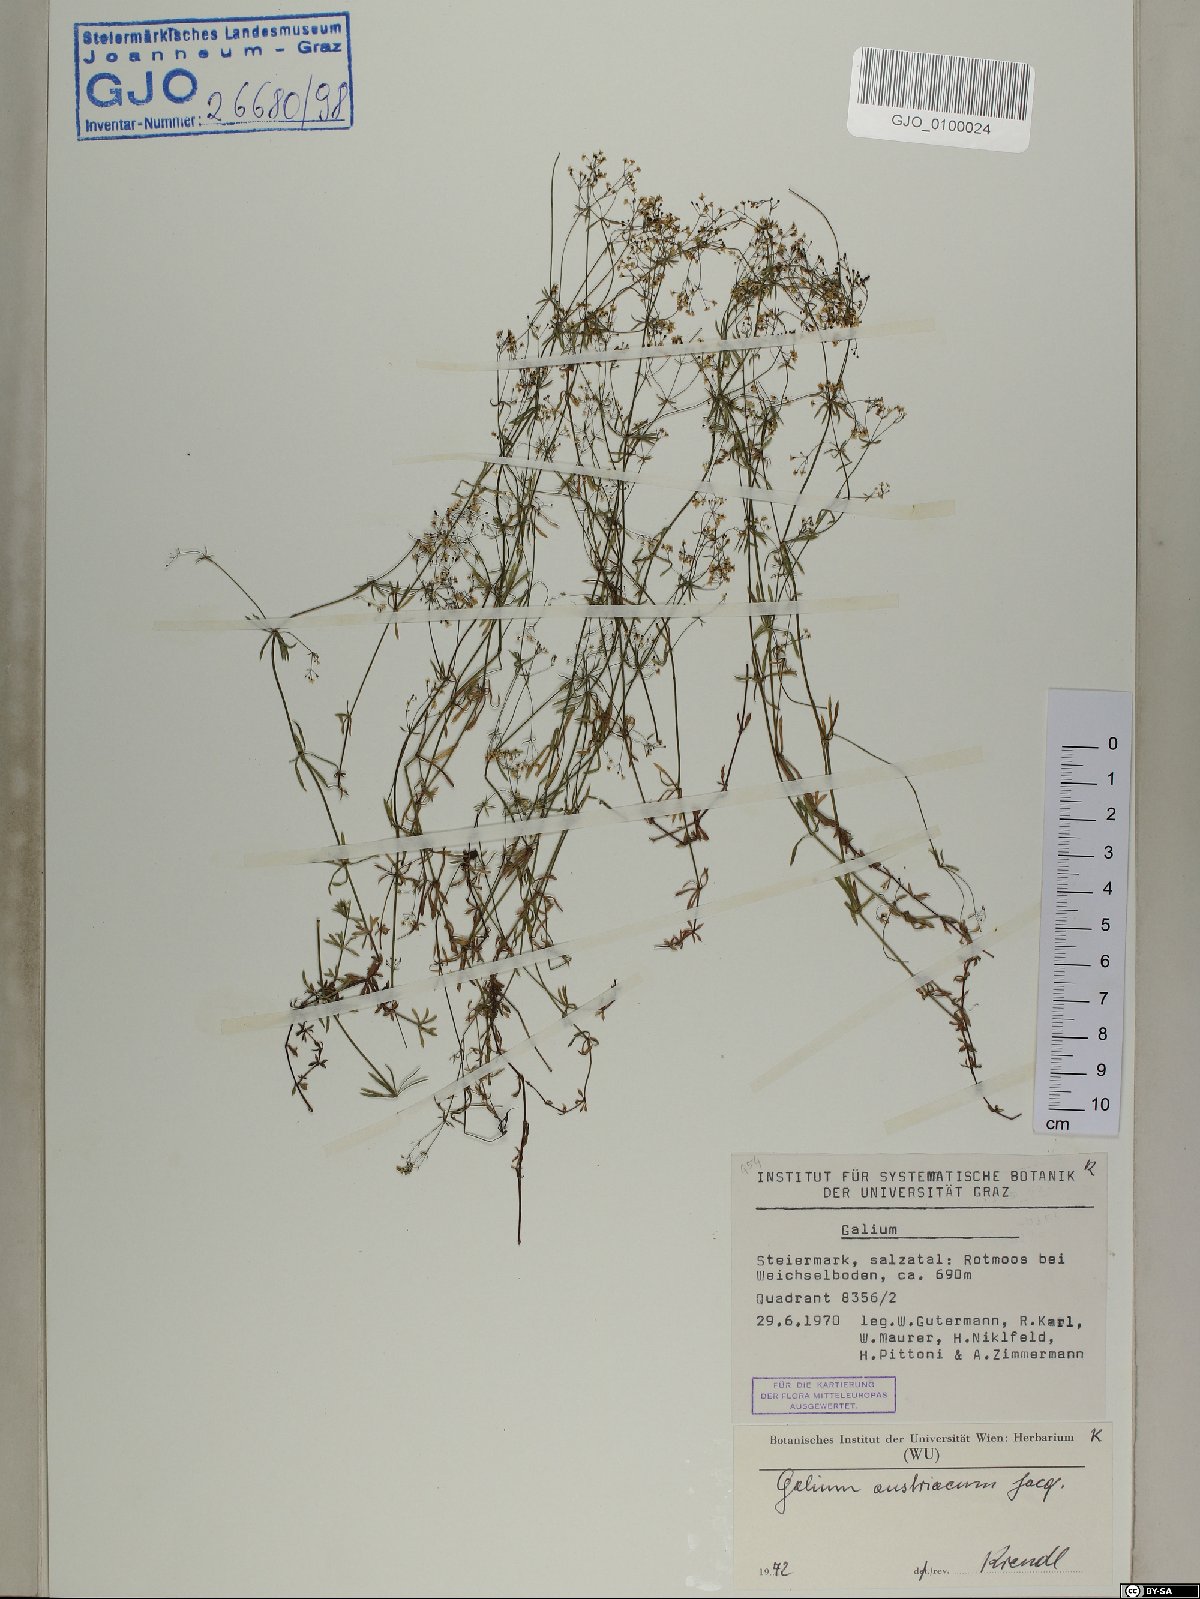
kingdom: Plantae
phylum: Tracheophyta
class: Magnoliopsida
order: Gentianales
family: Rubiaceae
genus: Galium
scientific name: Galium austriacum
